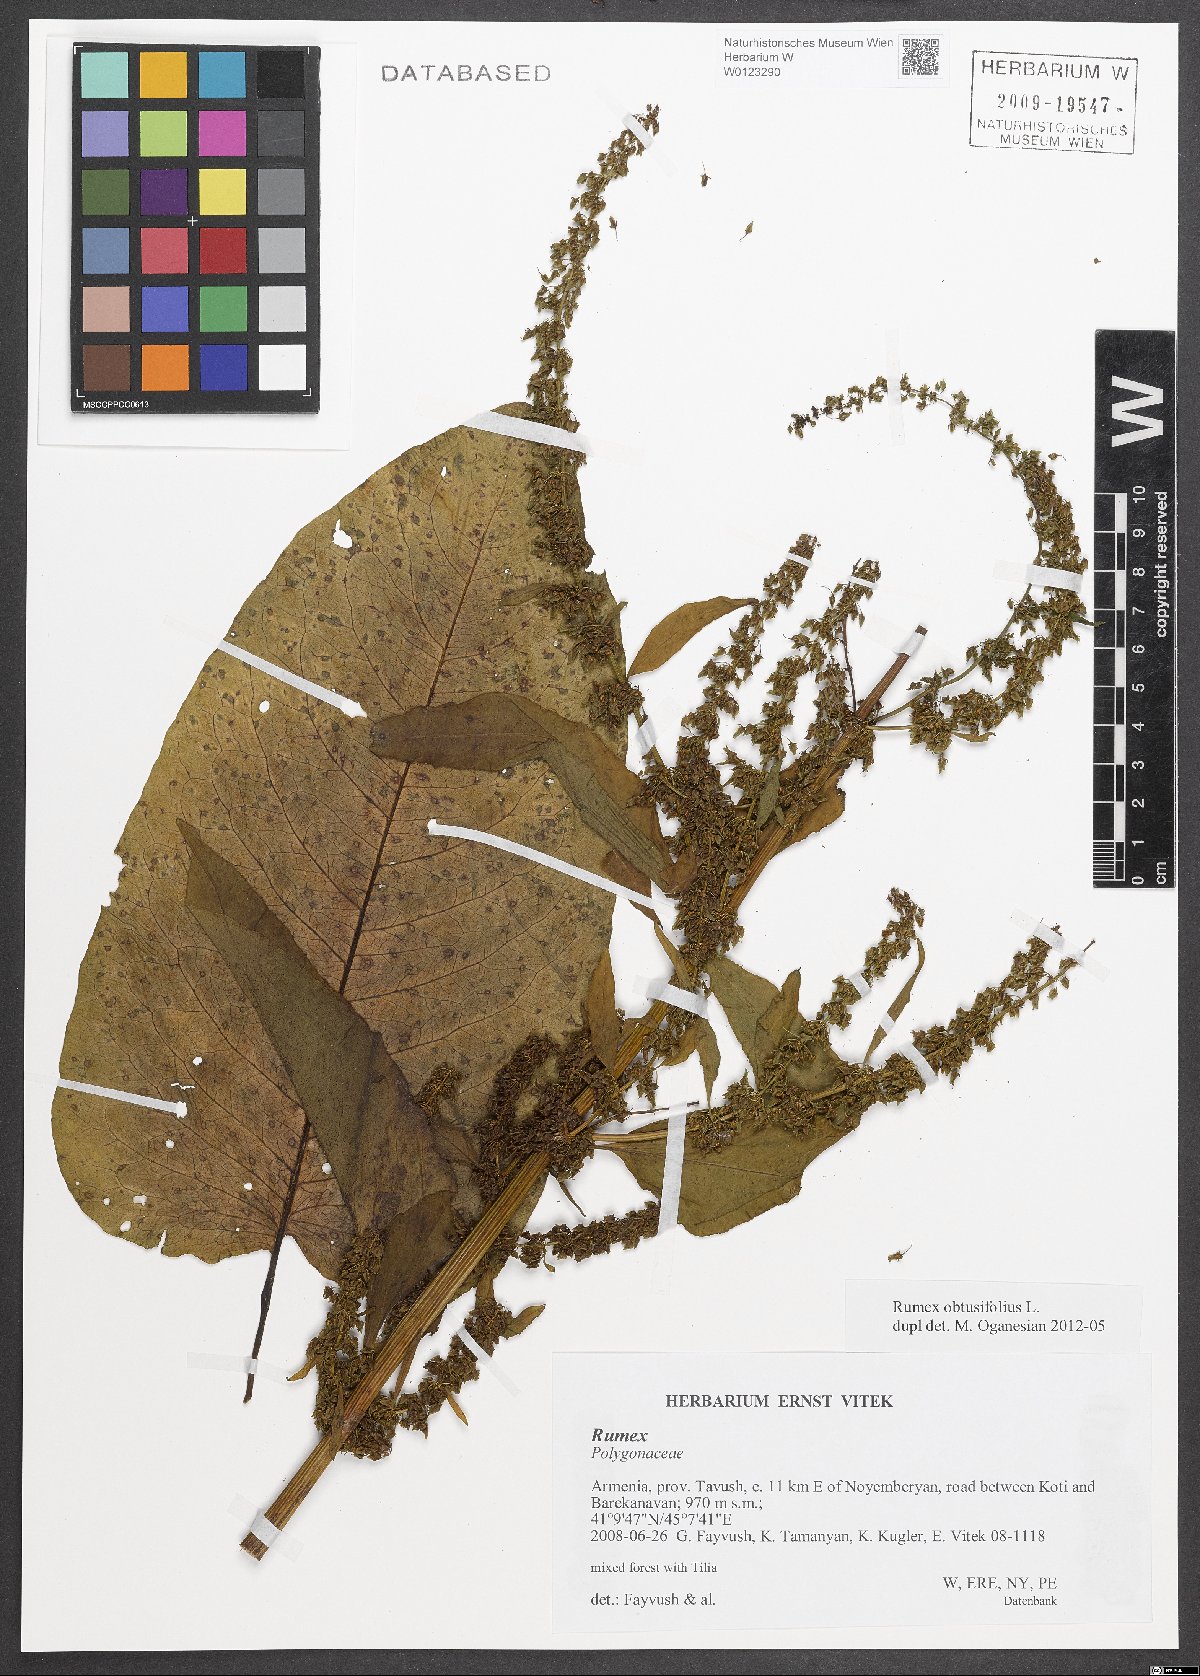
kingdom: Plantae
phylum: Tracheophyta
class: Magnoliopsida
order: Caryophyllales
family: Polygonaceae
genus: Rumex
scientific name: Rumex obtusifolius
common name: Bitter dock
